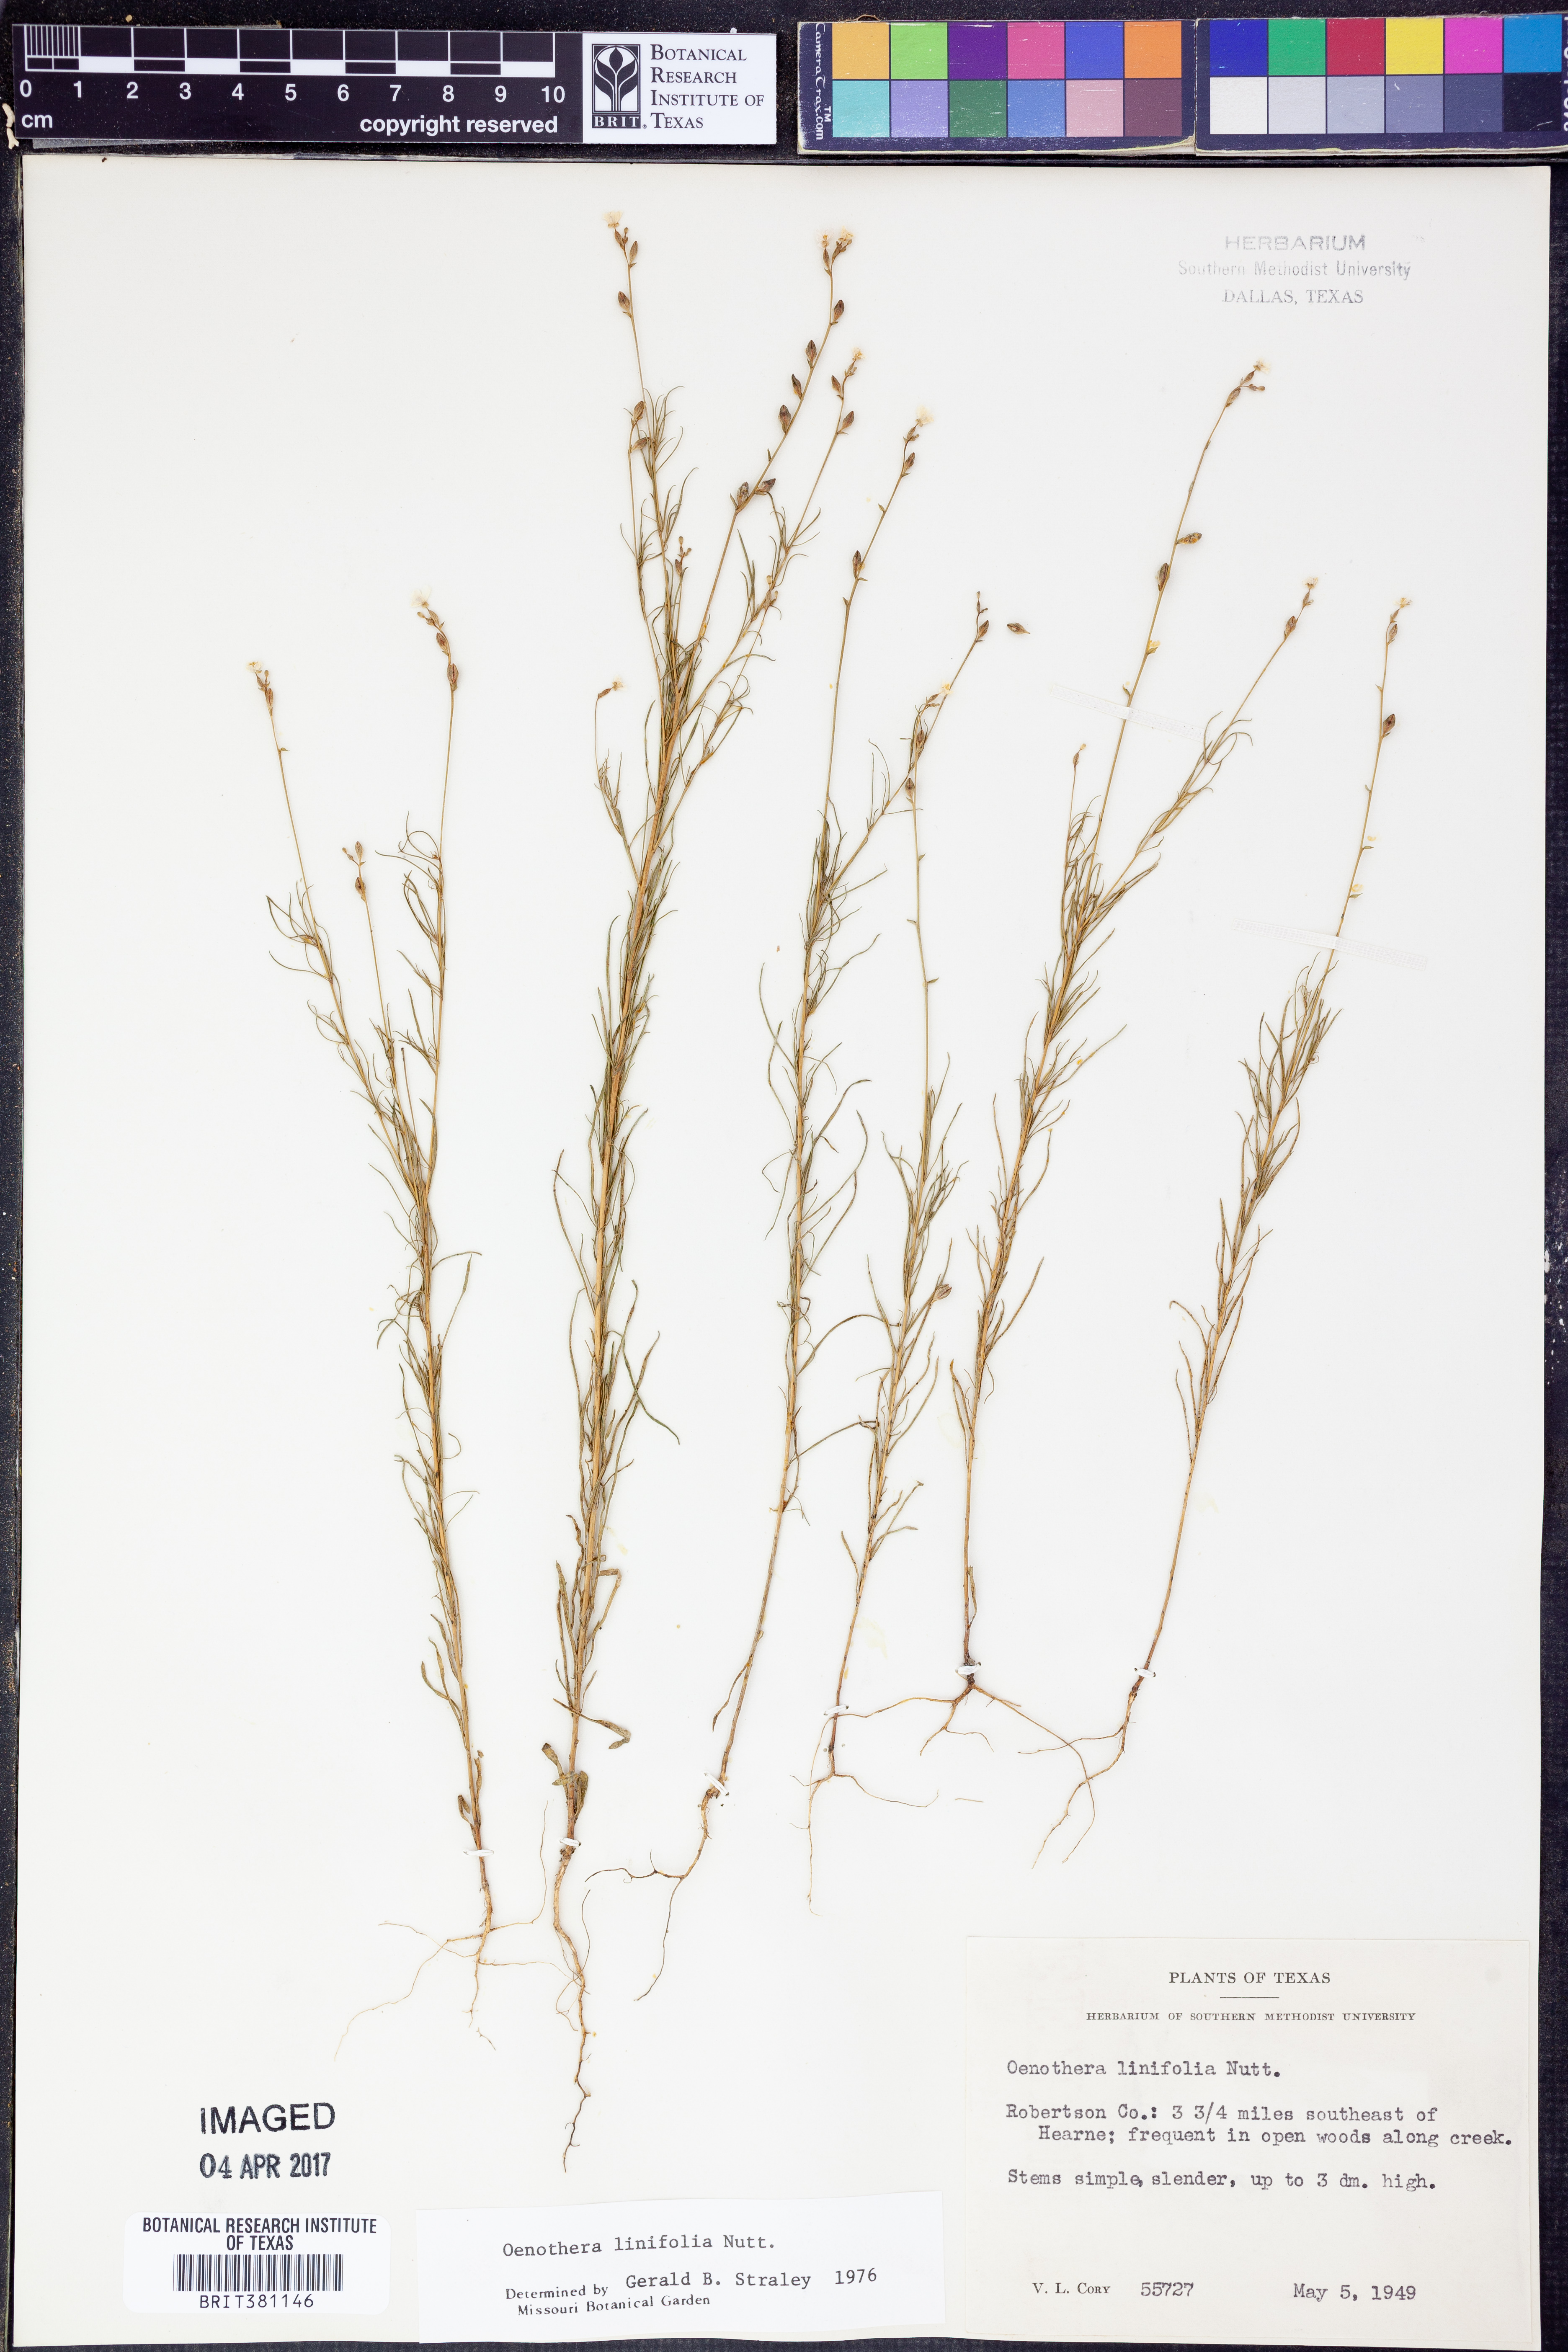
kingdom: Plantae
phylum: Tracheophyta
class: Magnoliopsida
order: Myrtales
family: Onagraceae
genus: Oenothera
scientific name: Oenothera linifolia
